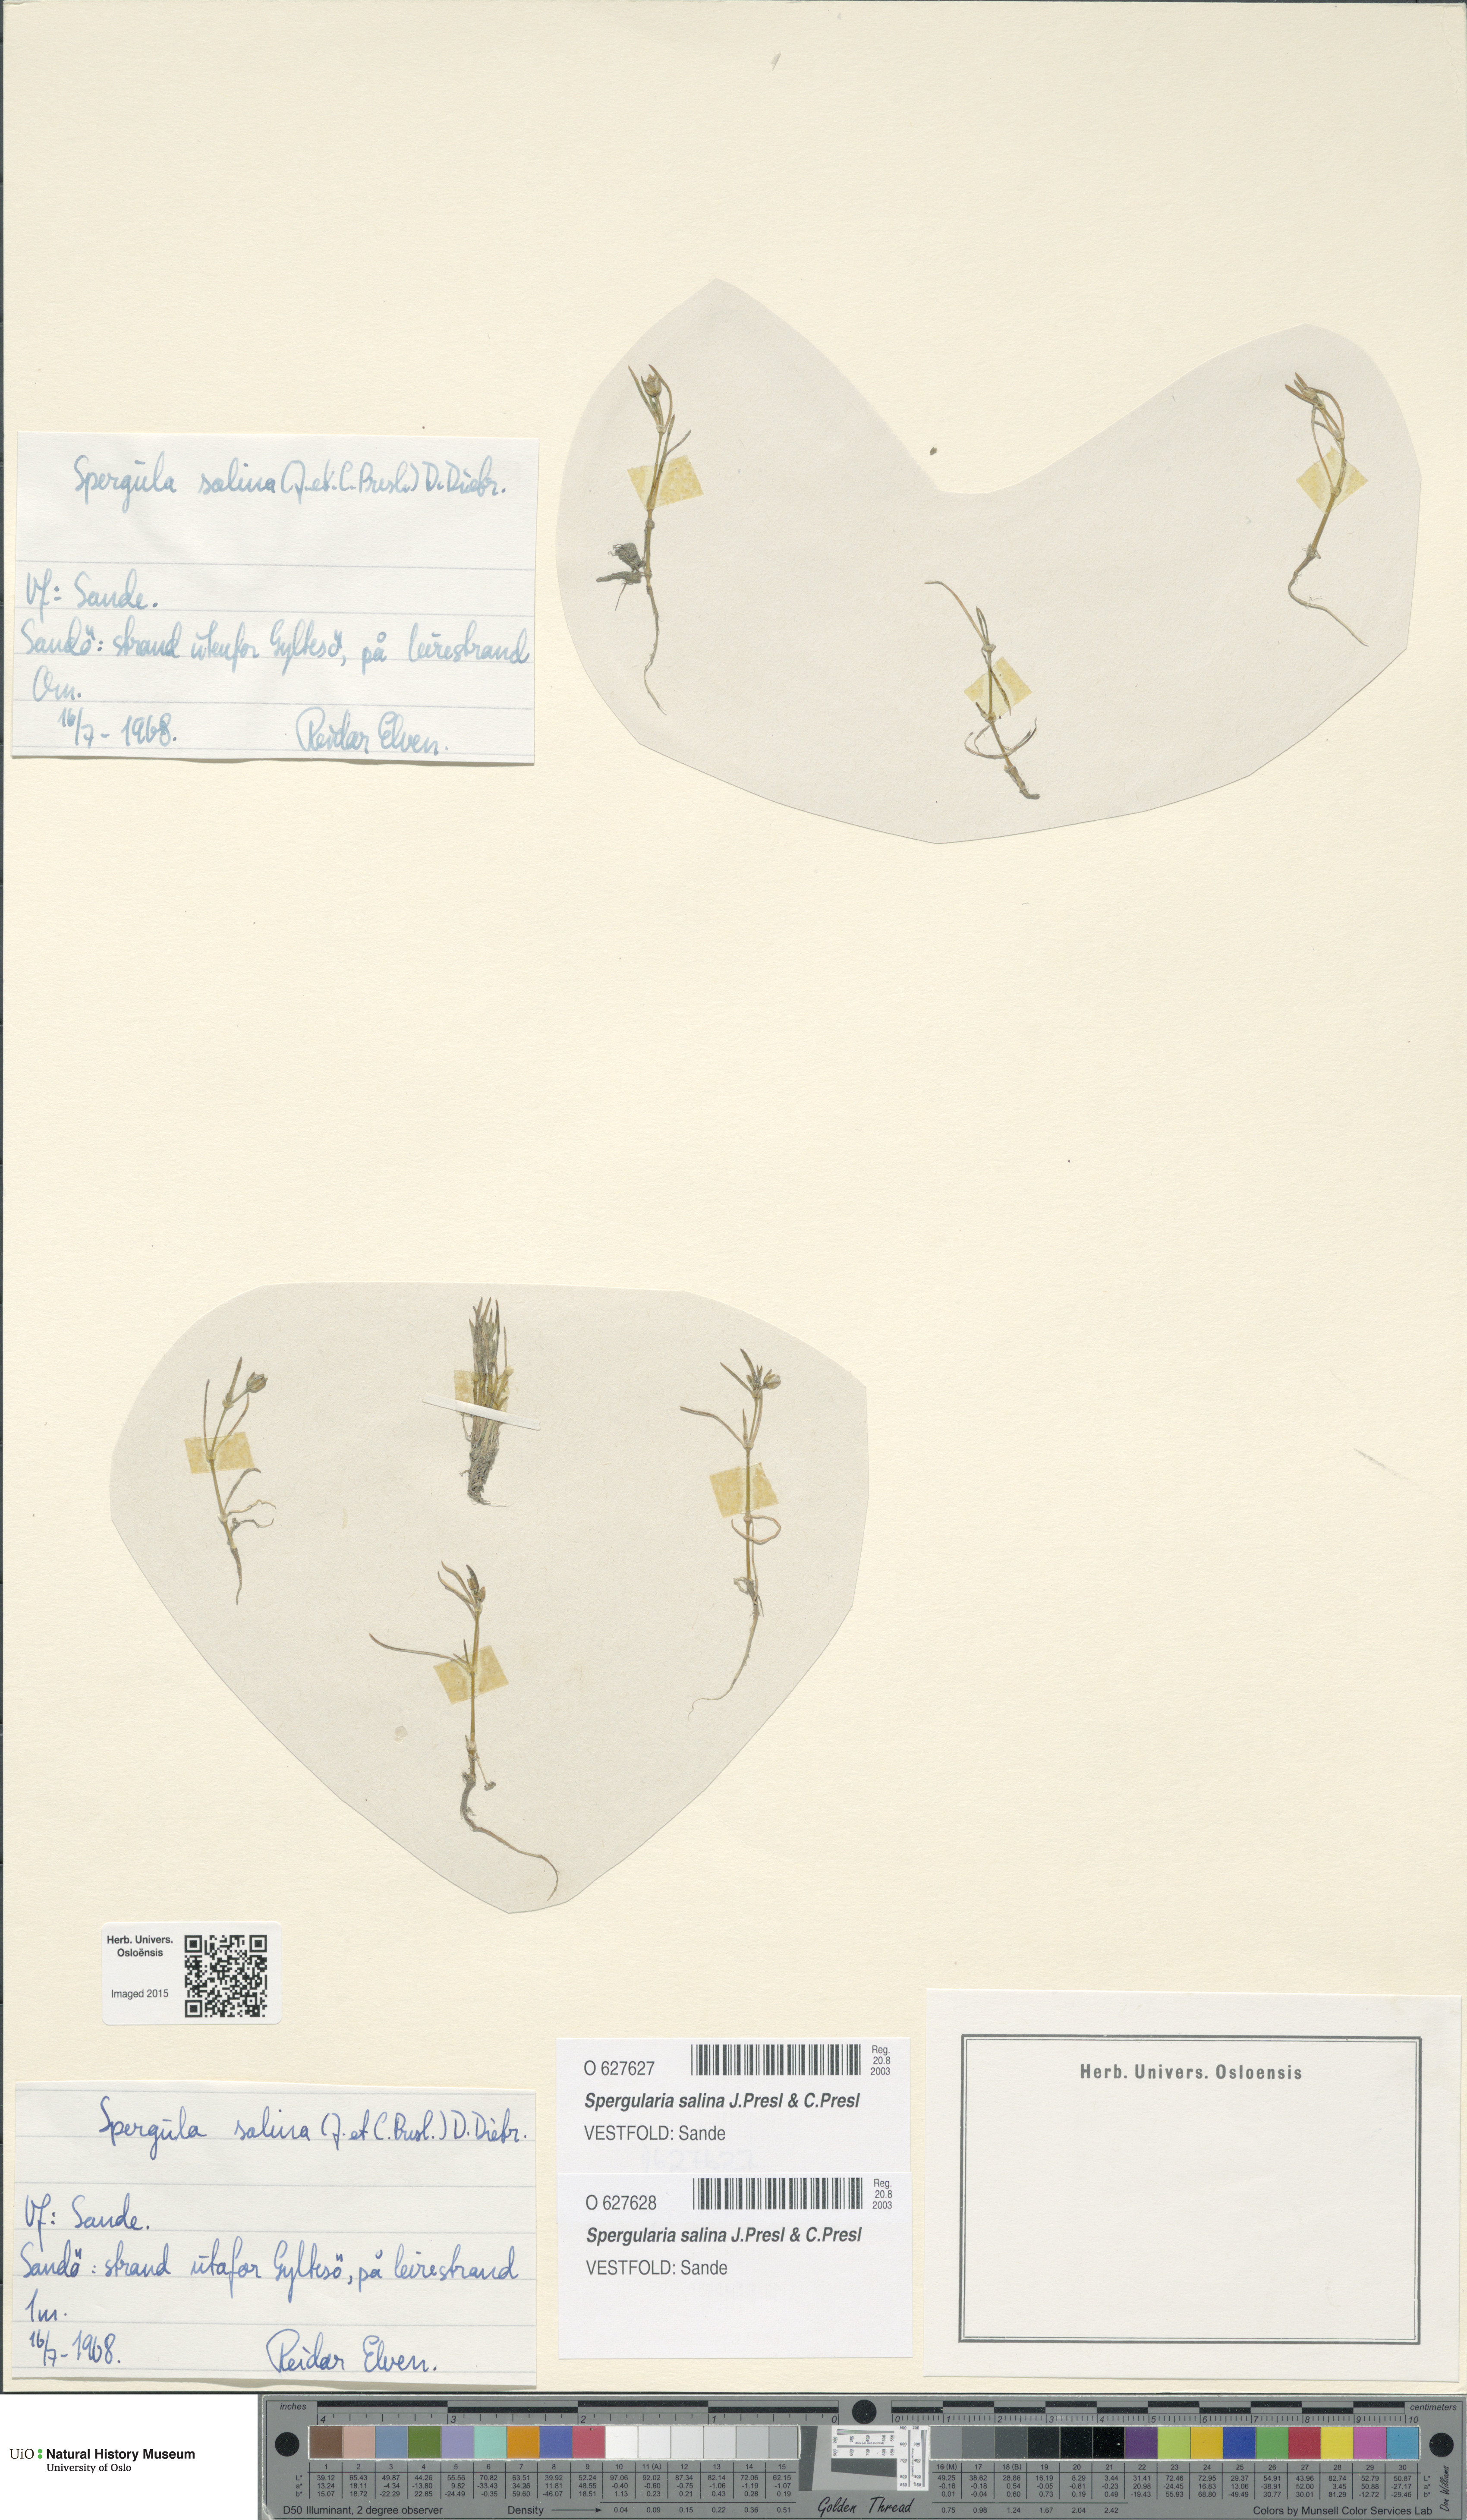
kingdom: Plantae
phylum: Tracheophyta
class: Magnoliopsida
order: Caryophyllales
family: Caryophyllaceae
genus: Spergularia
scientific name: Spergularia marina
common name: Lesser sea-spurrey
